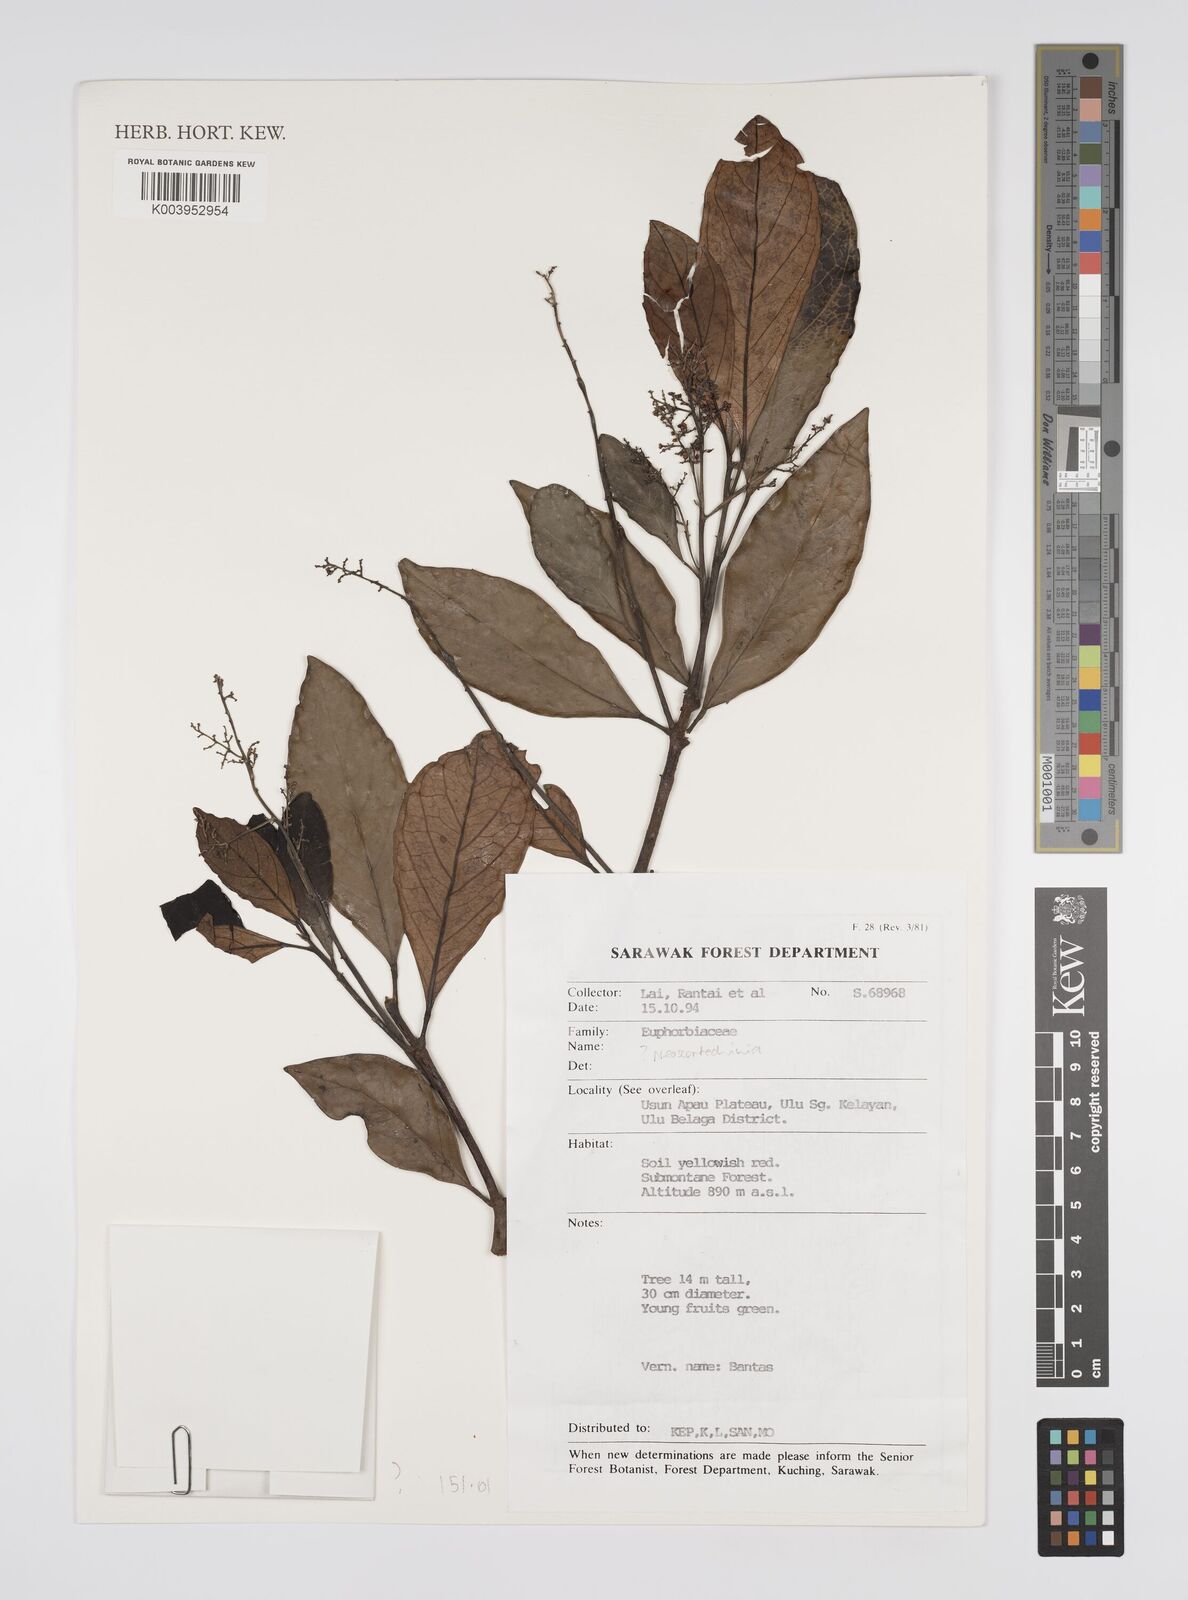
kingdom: Plantae
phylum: Tracheophyta
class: Magnoliopsida
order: Malpighiales
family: Euphorbiaceae
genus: Neoscortechinia
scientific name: Neoscortechinia
